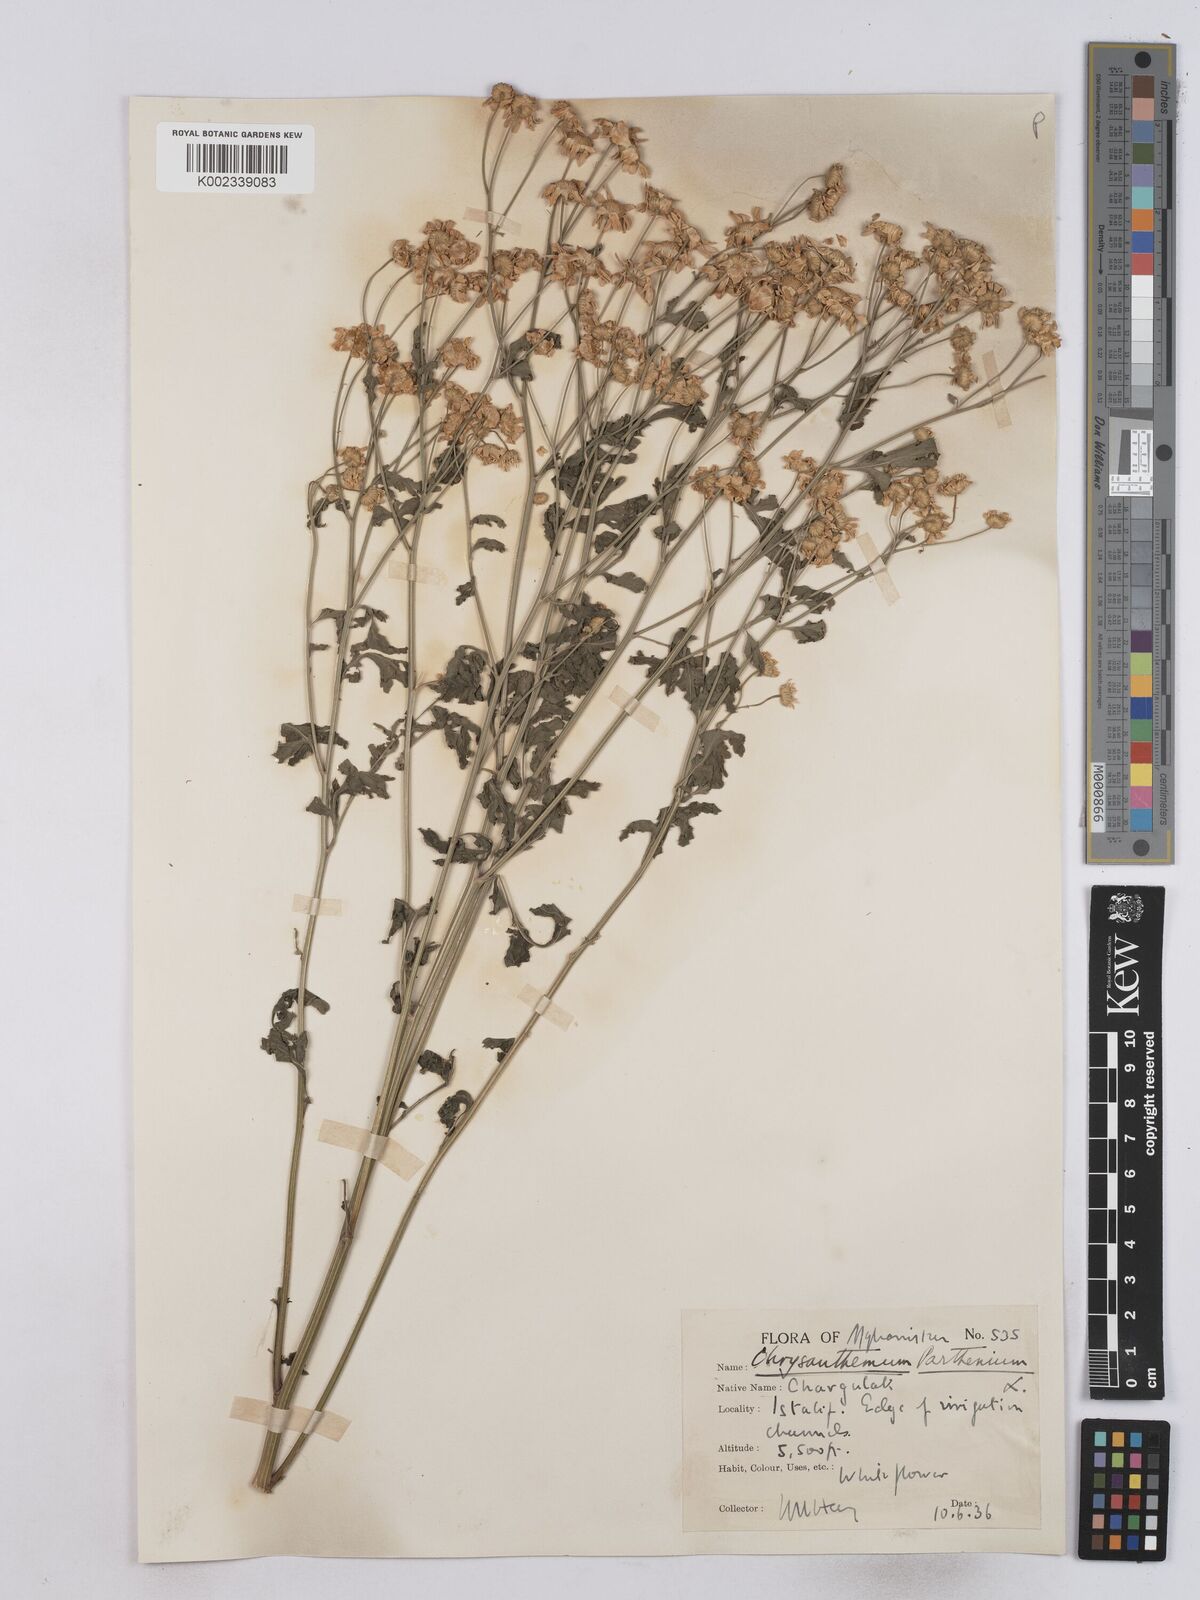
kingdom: Plantae
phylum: Tracheophyta
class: Magnoliopsida
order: Asterales
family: Asteraceae
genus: Tanacetum
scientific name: Tanacetum parthenium
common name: Feverfew
